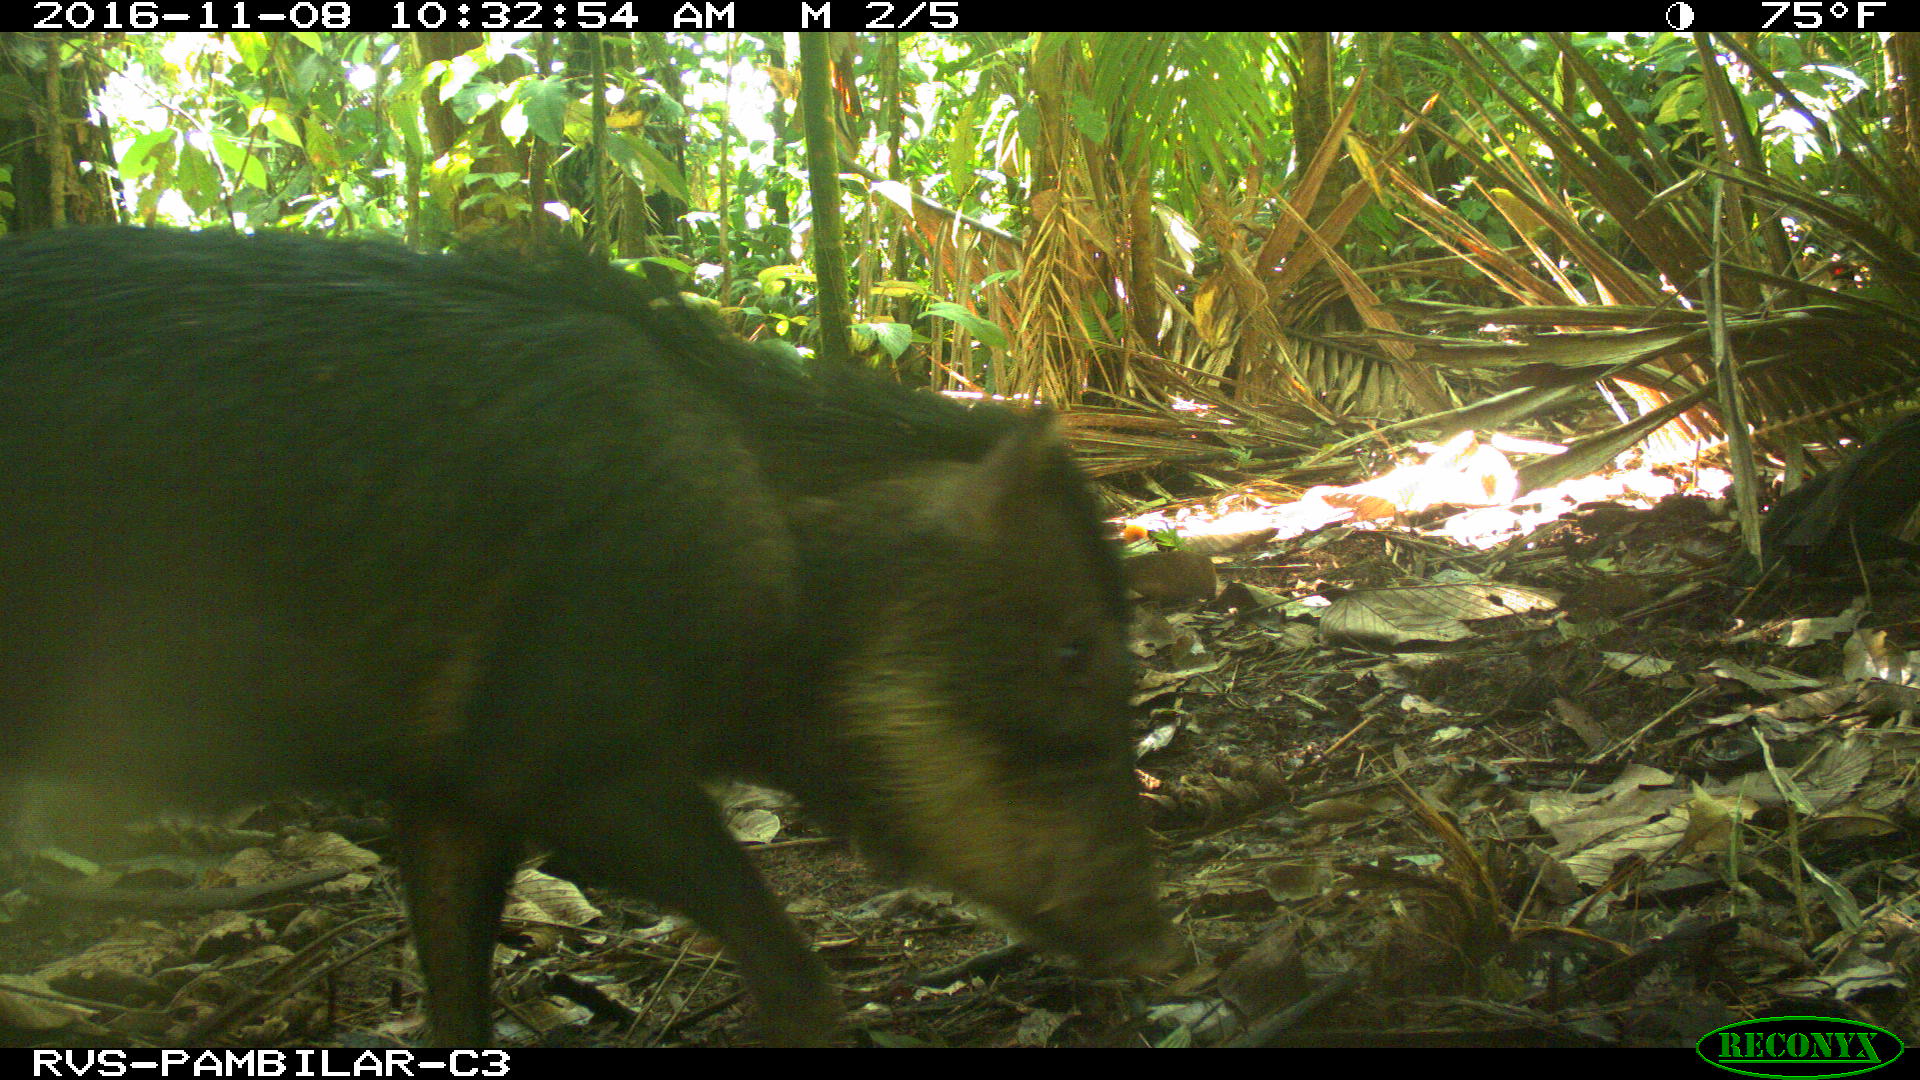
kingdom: Animalia
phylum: Chordata
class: Mammalia
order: Artiodactyla
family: Tayassuidae
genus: Tayassu
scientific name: Tayassu pecari
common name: White-lipped peccary
